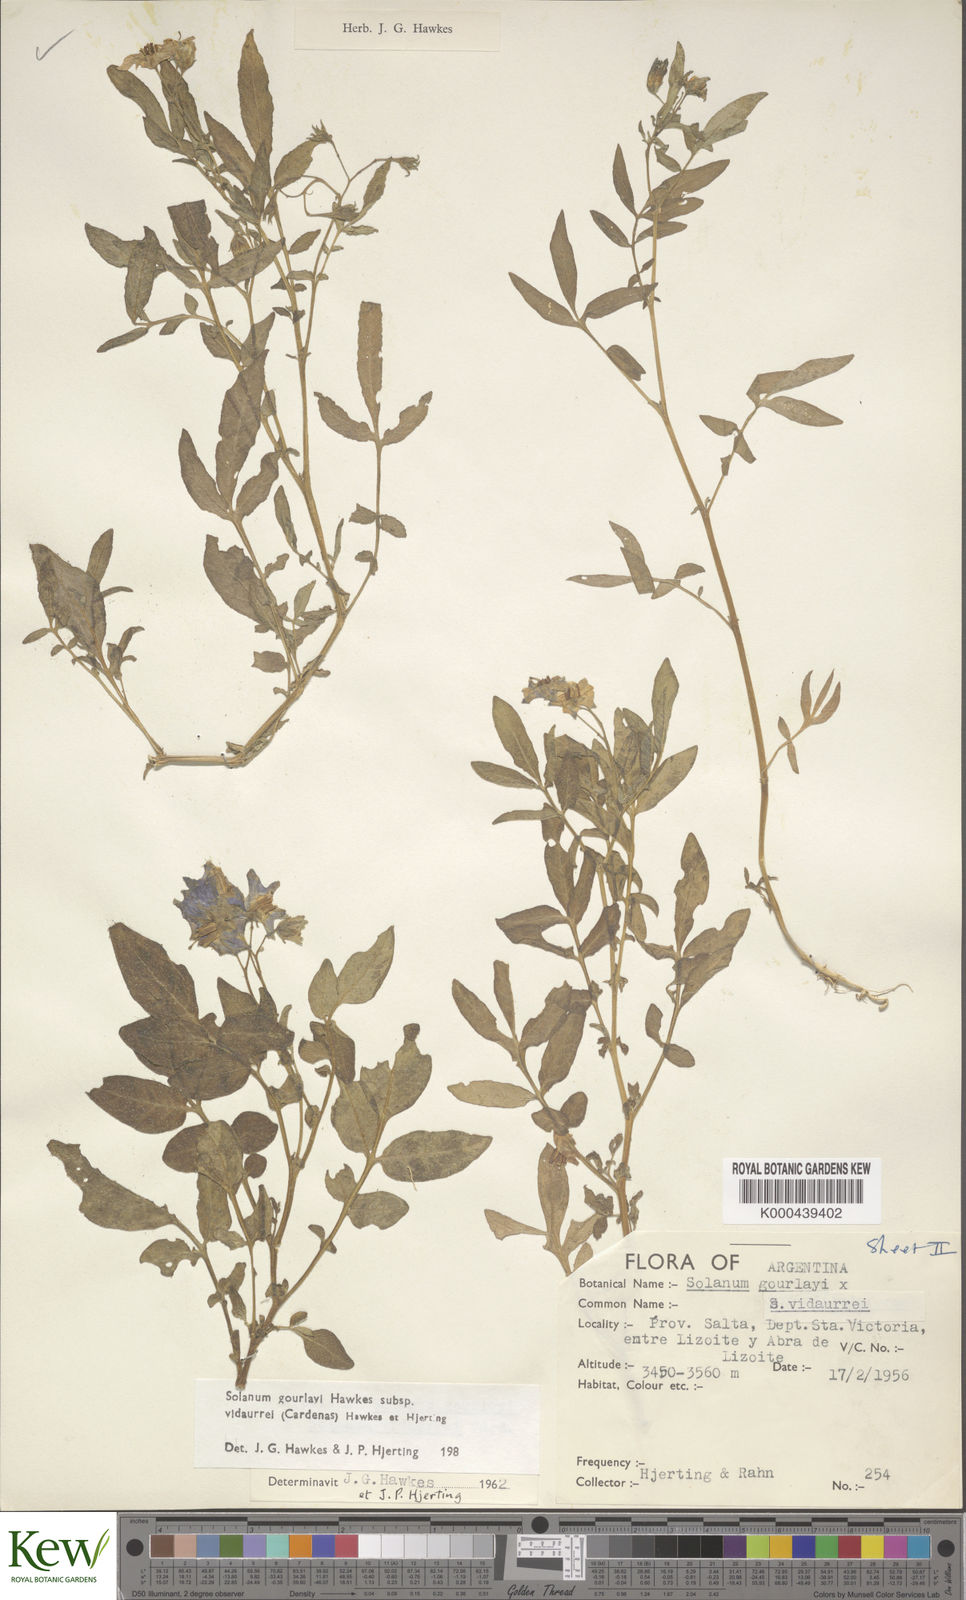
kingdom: Plantae
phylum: Tracheophyta
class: Magnoliopsida
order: Solanales
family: Solanaceae
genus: Solanum
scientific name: Solanum brevicaule
